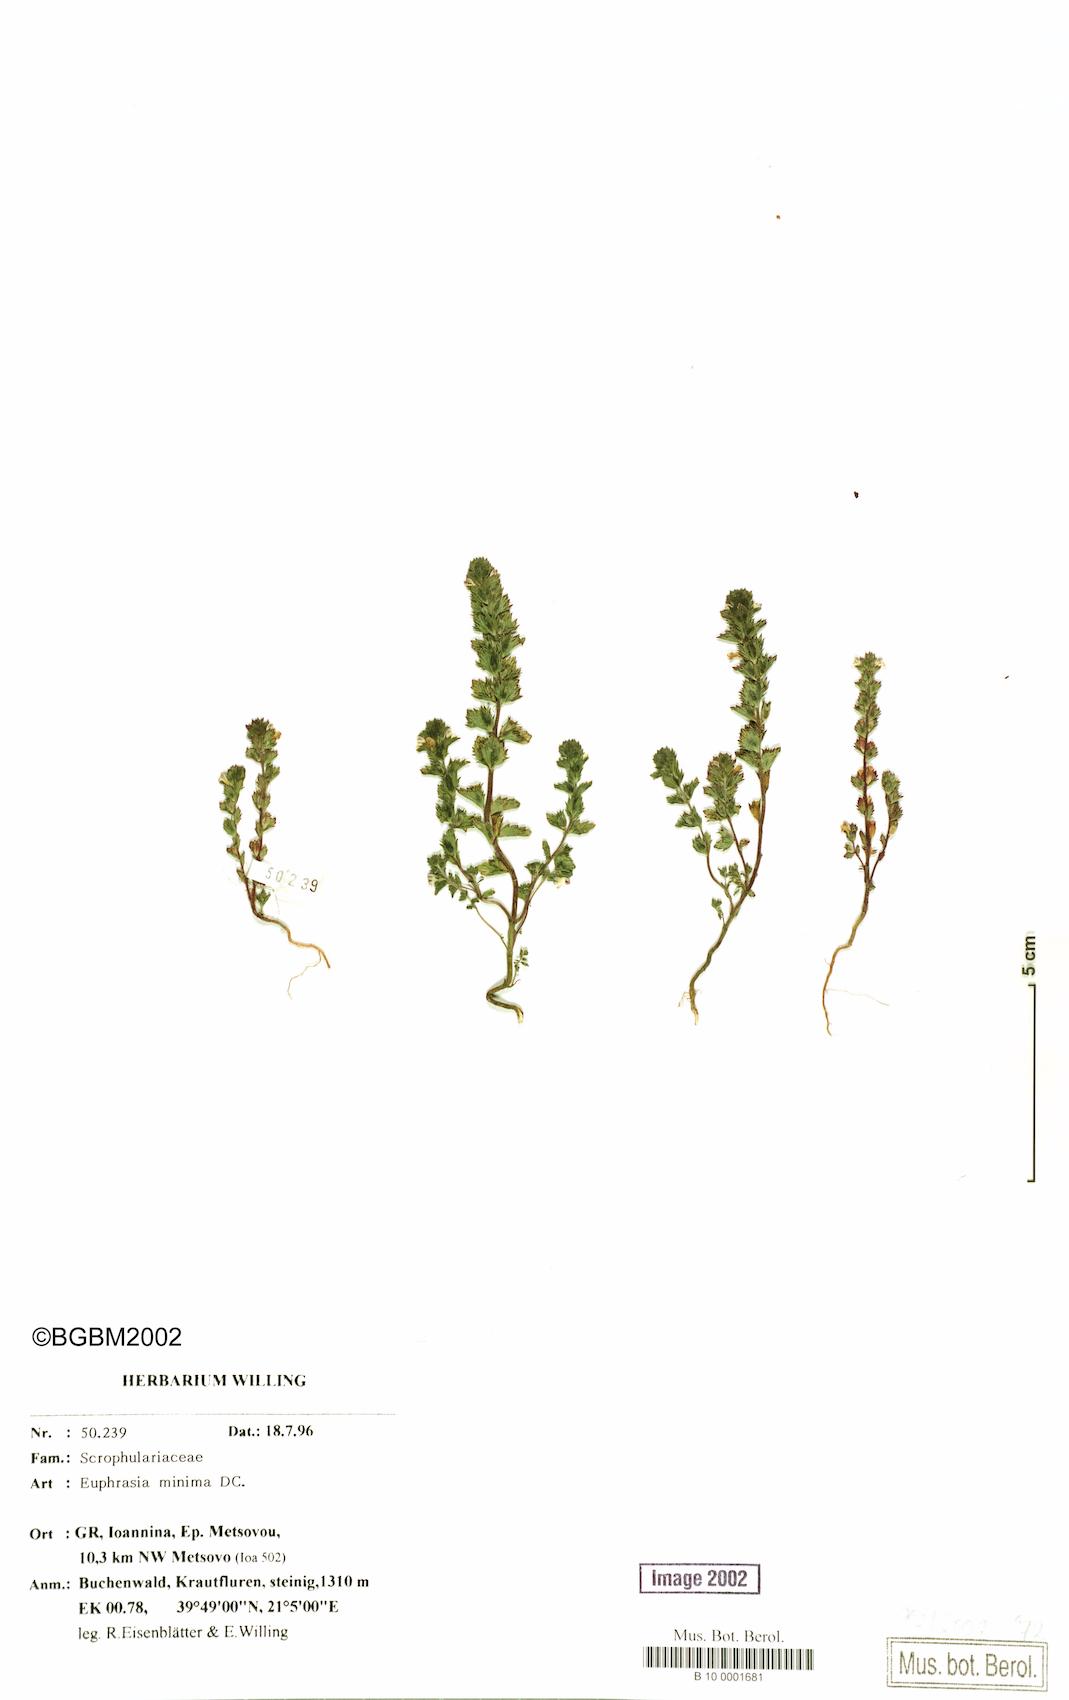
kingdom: Plantae
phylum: Tracheophyta
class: Magnoliopsida
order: Lamiales
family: Orobanchaceae
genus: Euphrasia
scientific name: Euphrasia minima
